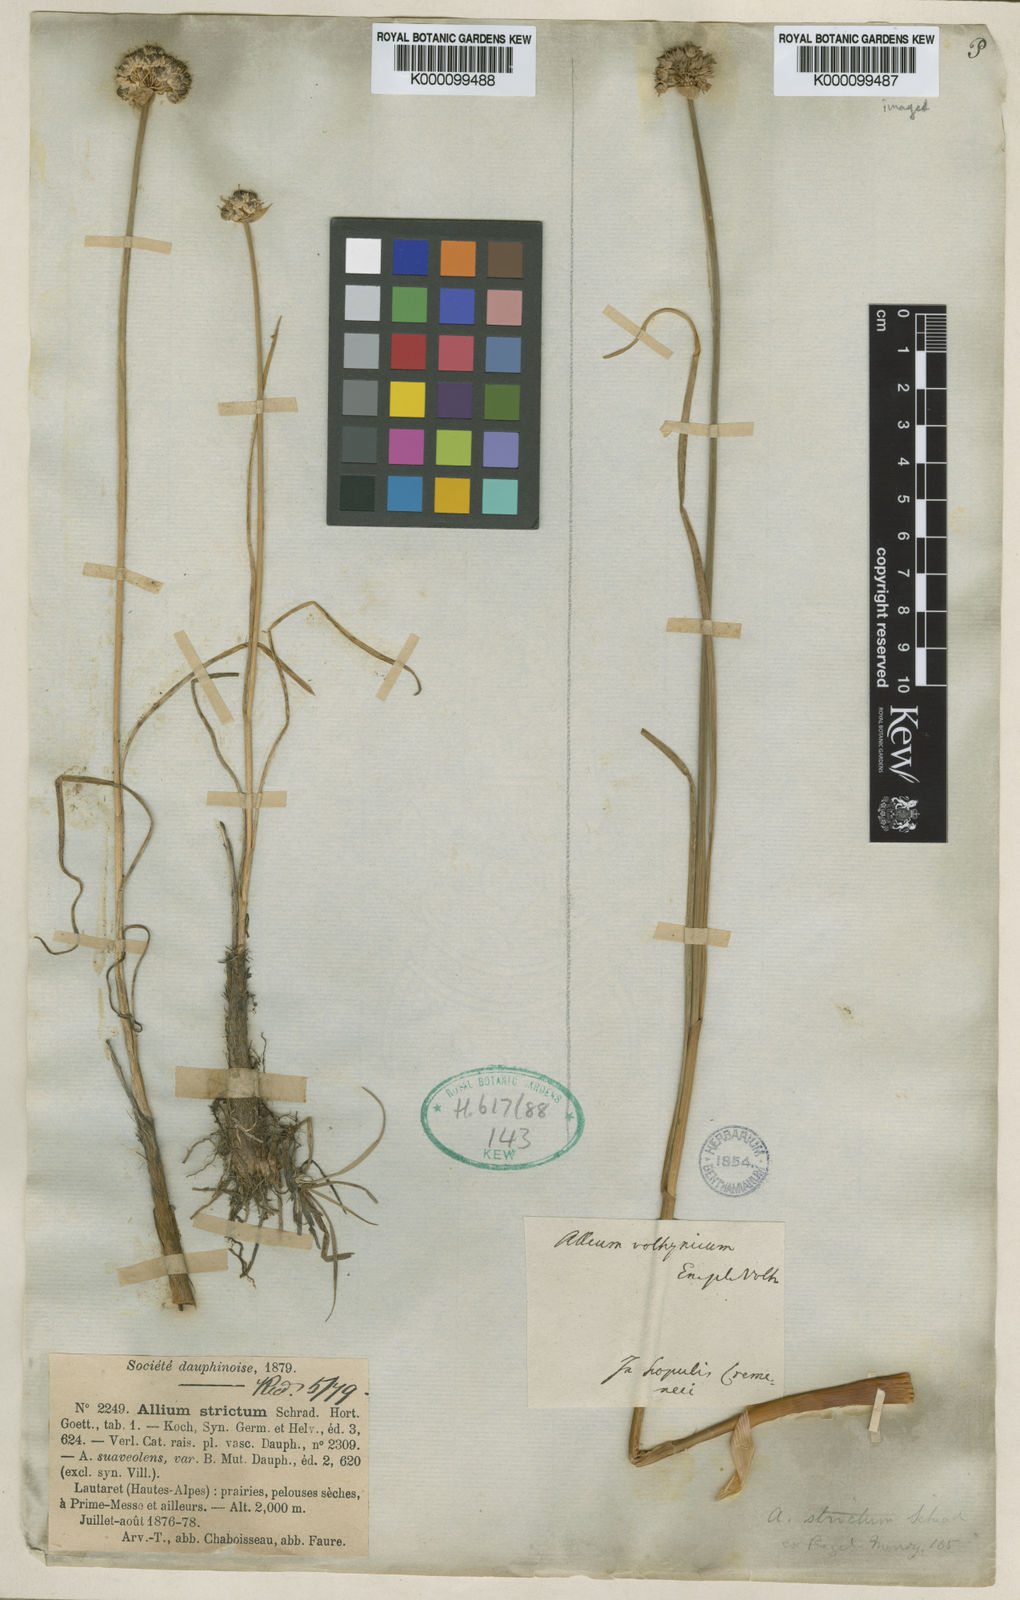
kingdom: Plantae
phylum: Tracheophyta
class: Liliopsida
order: Asparagales
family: Amaryllidaceae
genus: Allium
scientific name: Allium strictum
